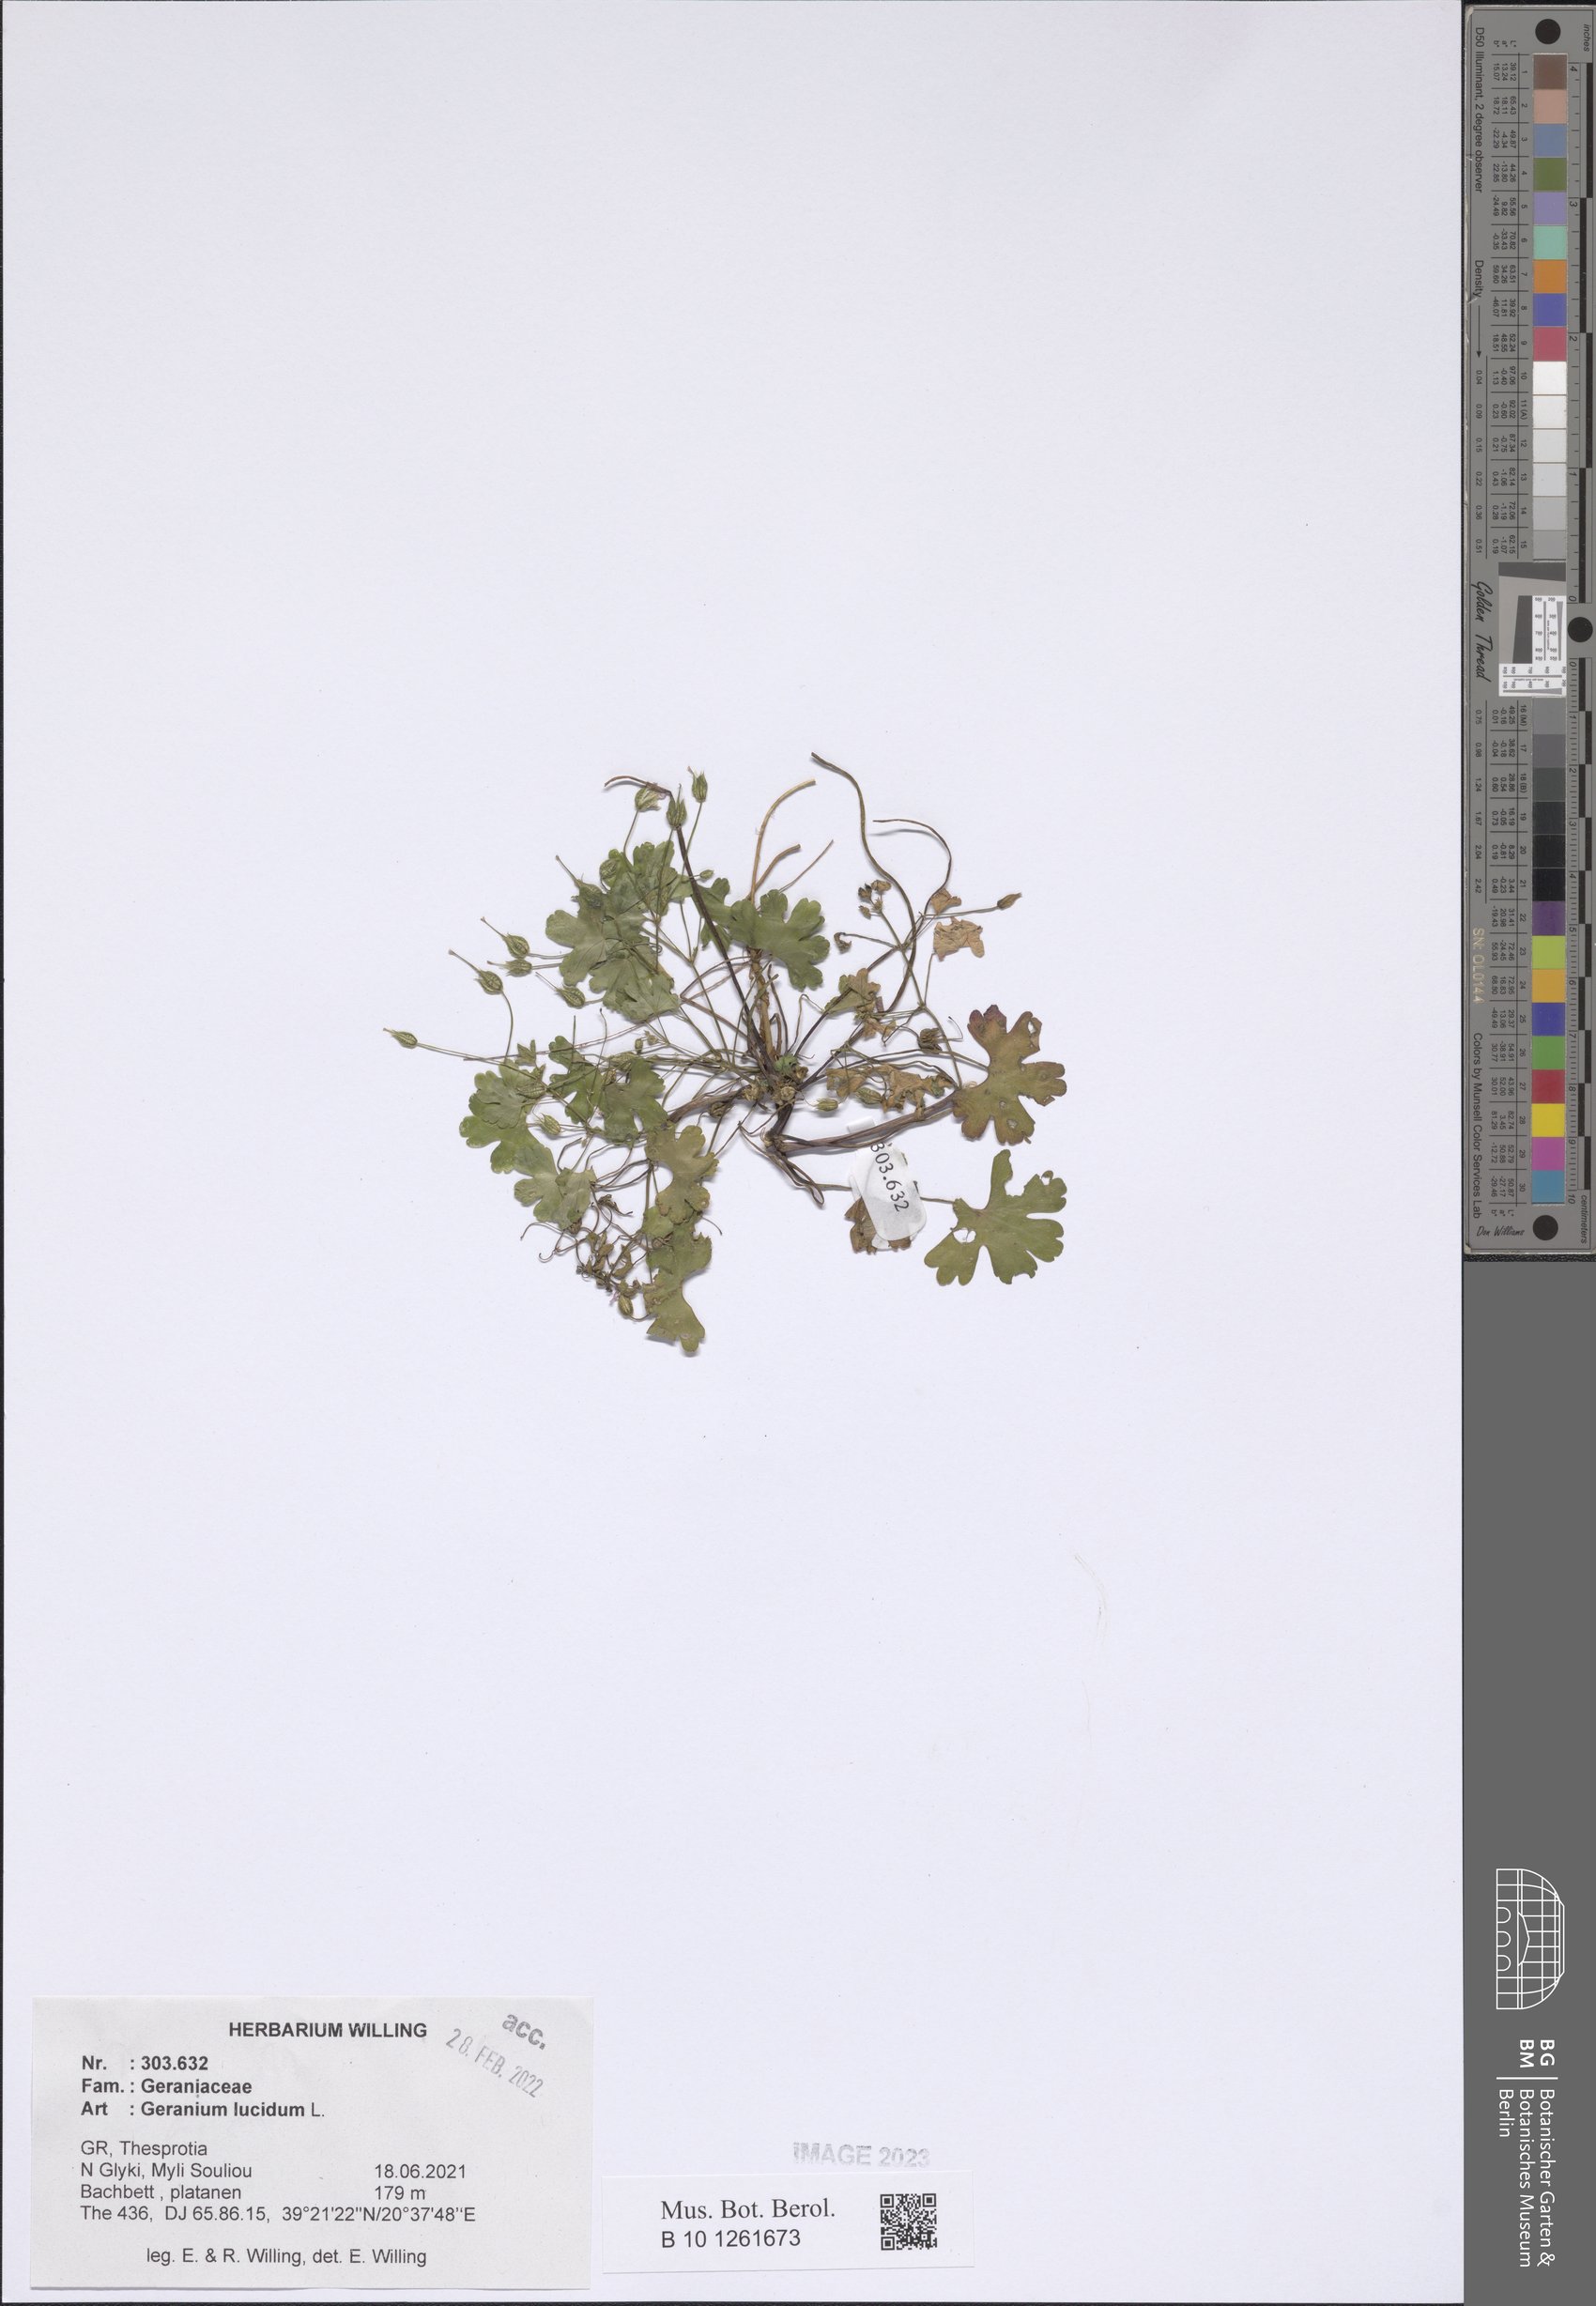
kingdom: Plantae
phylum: Tracheophyta
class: Magnoliopsida
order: Geraniales
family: Geraniaceae
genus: Geranium
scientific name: Geranium lucidum
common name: Shining crane's-bill
